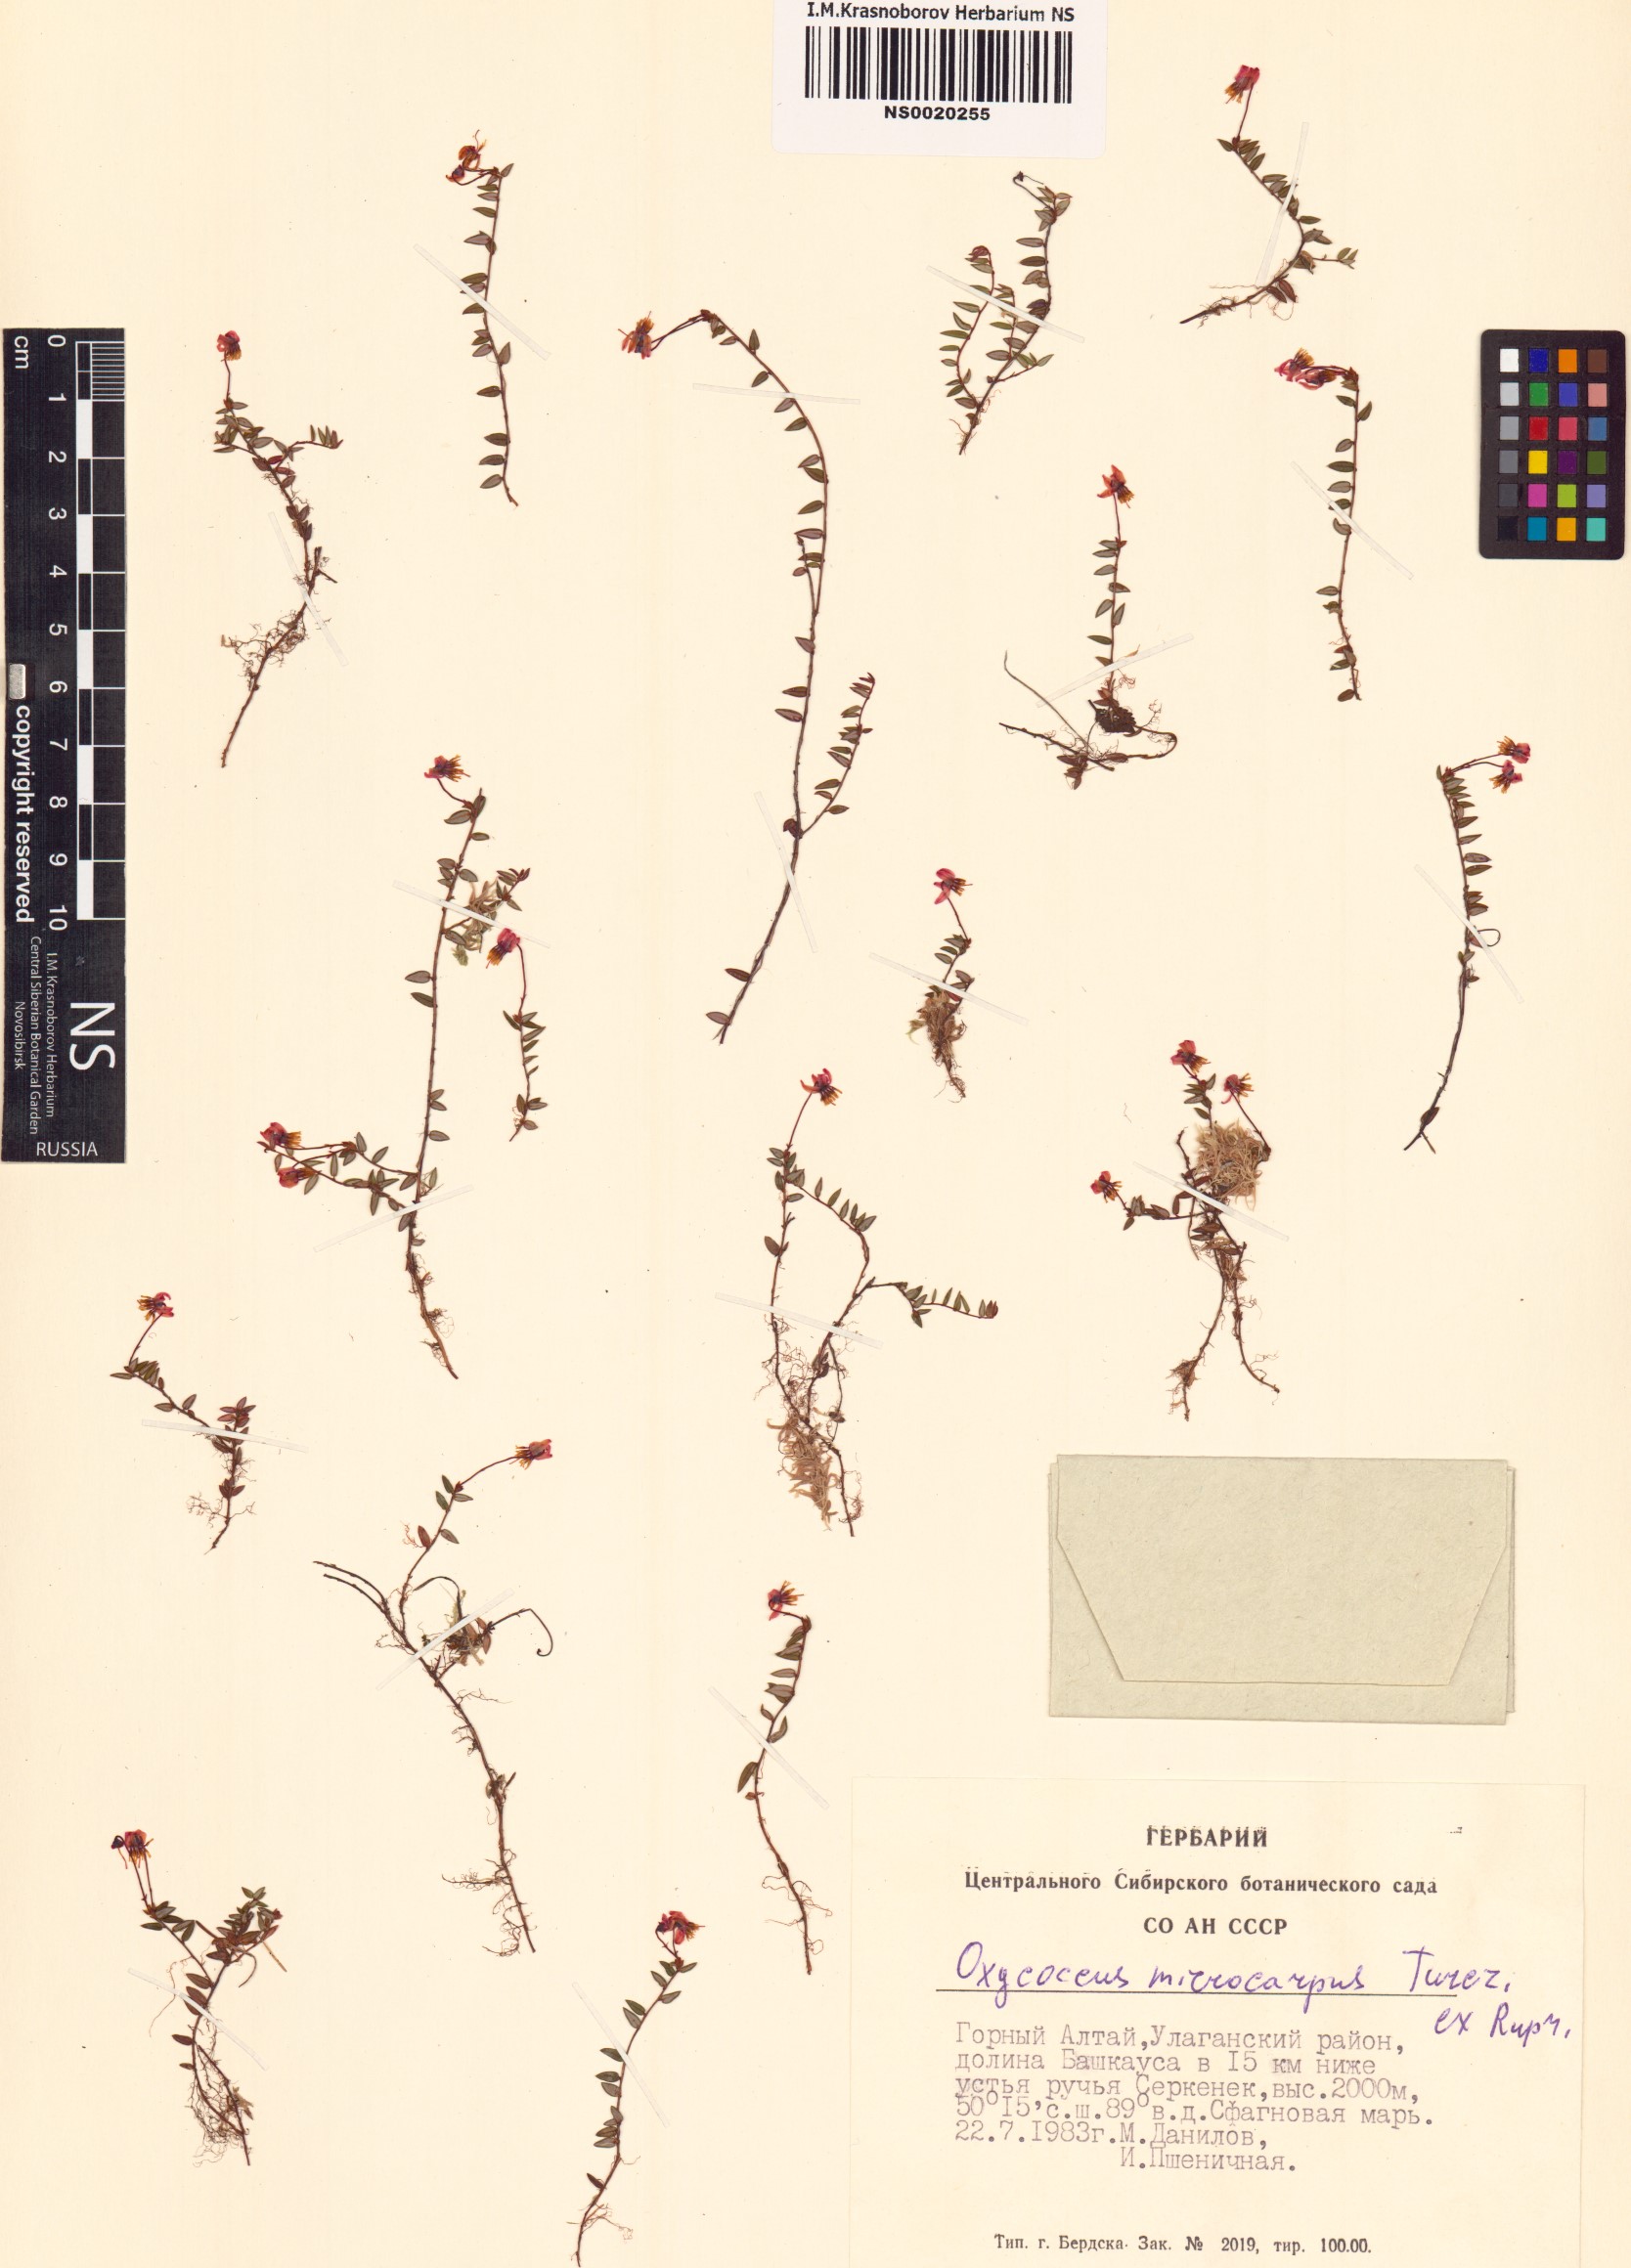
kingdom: Plantae
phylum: Tracheophyta
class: Magnoliopsida
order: Ericales
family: Ericaceae
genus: Vaccinium
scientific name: Vaccinium microcarpum
